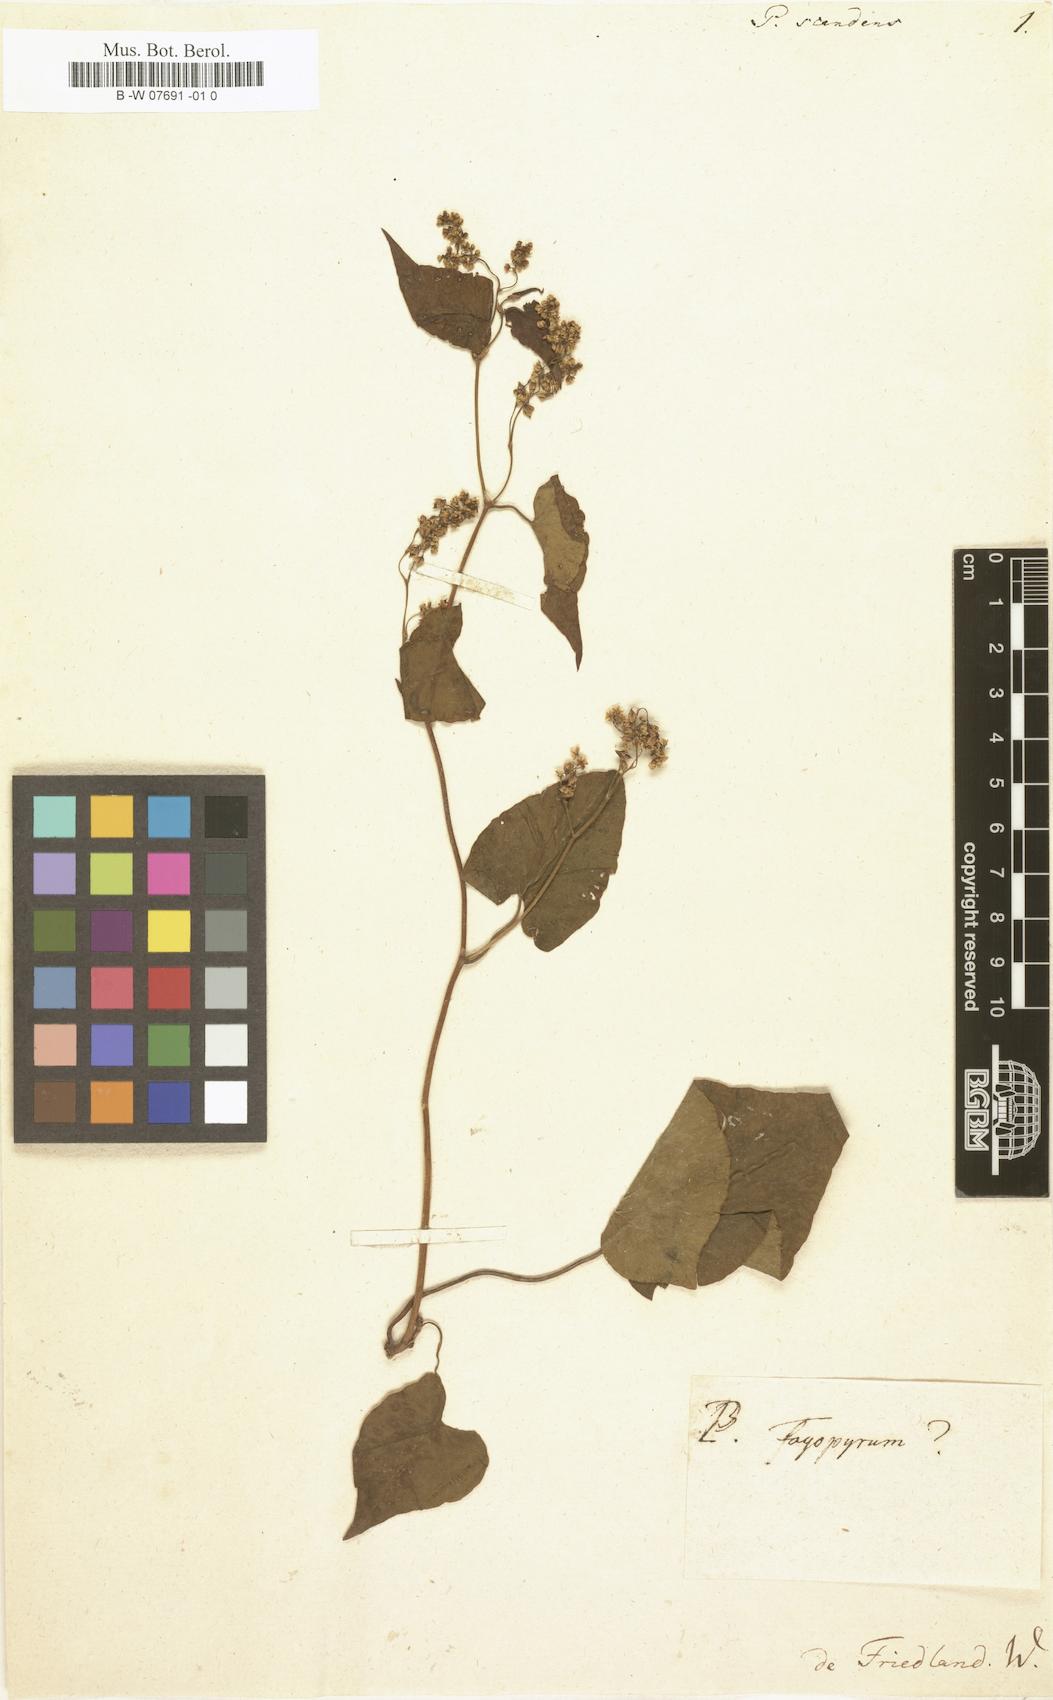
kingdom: Plantae
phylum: Tracheophyta
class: Magnoliopsida
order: Caryophyllales
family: Polygonaceae
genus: Fallopia
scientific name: Fallopia scandens
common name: Climbing false buckwheat
